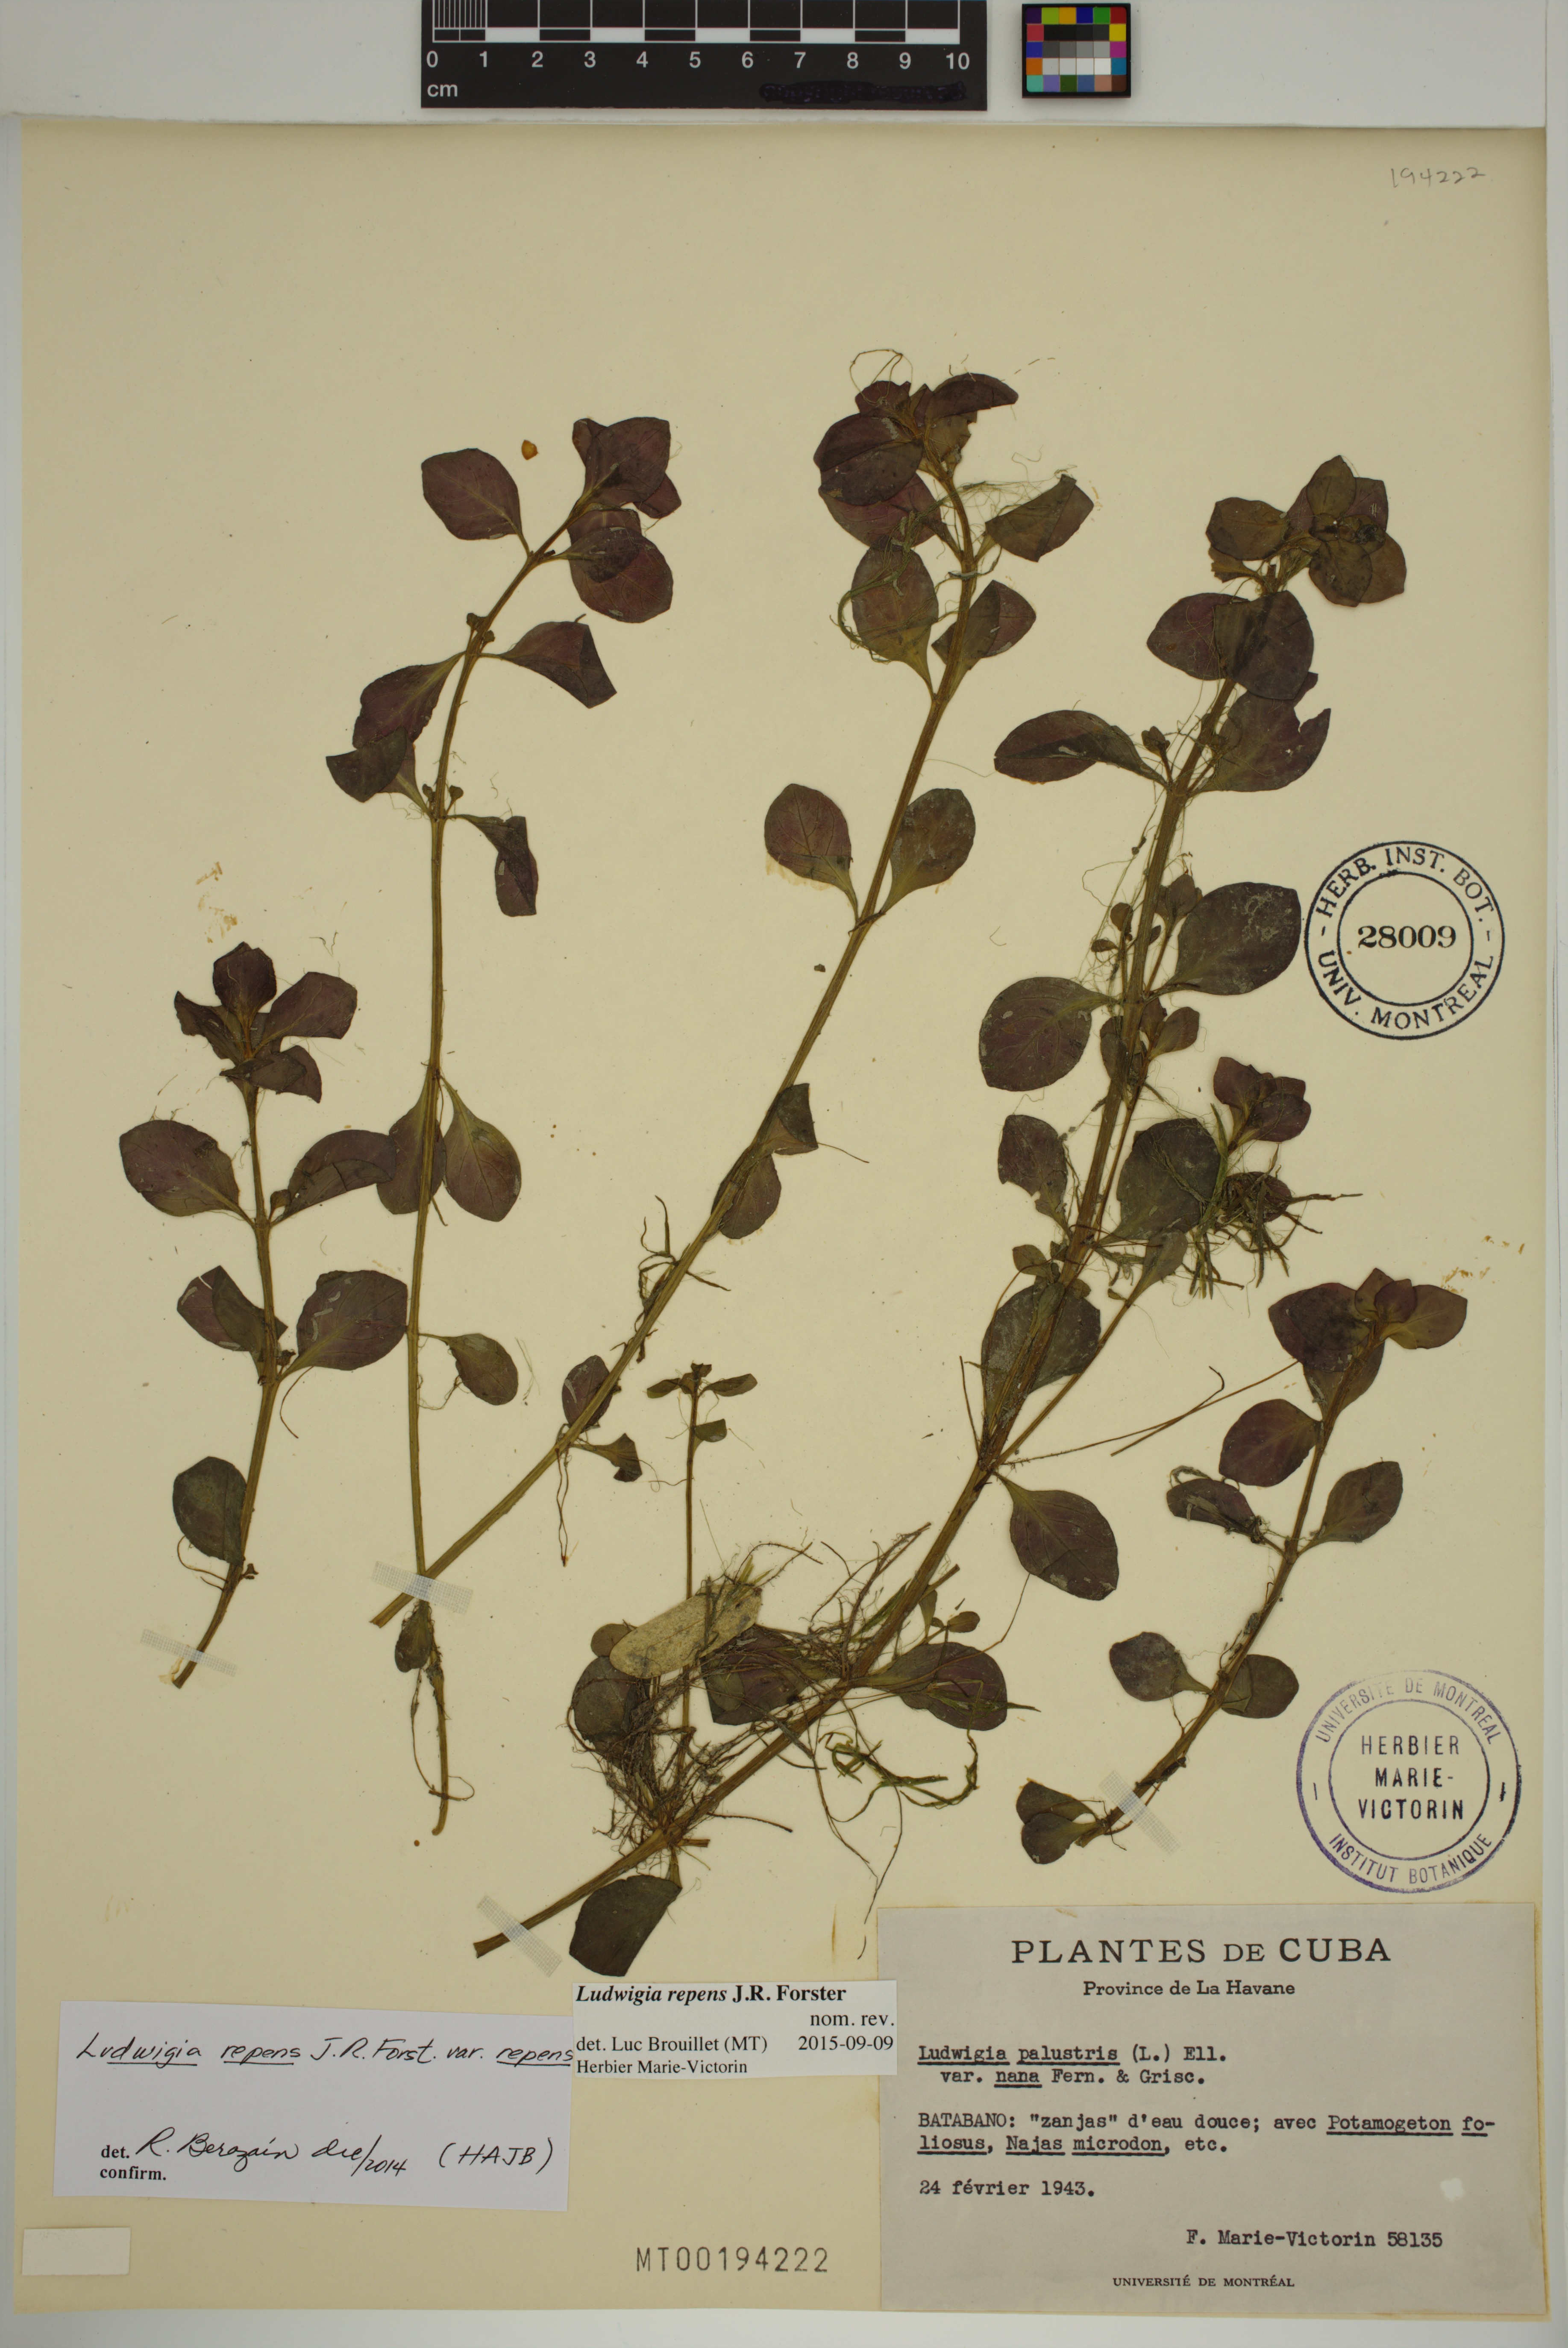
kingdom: Plantae
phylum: Tracheophyta
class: Magnoliopsida
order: Myrtales
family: Onagraceae
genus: Ludwigia
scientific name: Ludwigia repens
